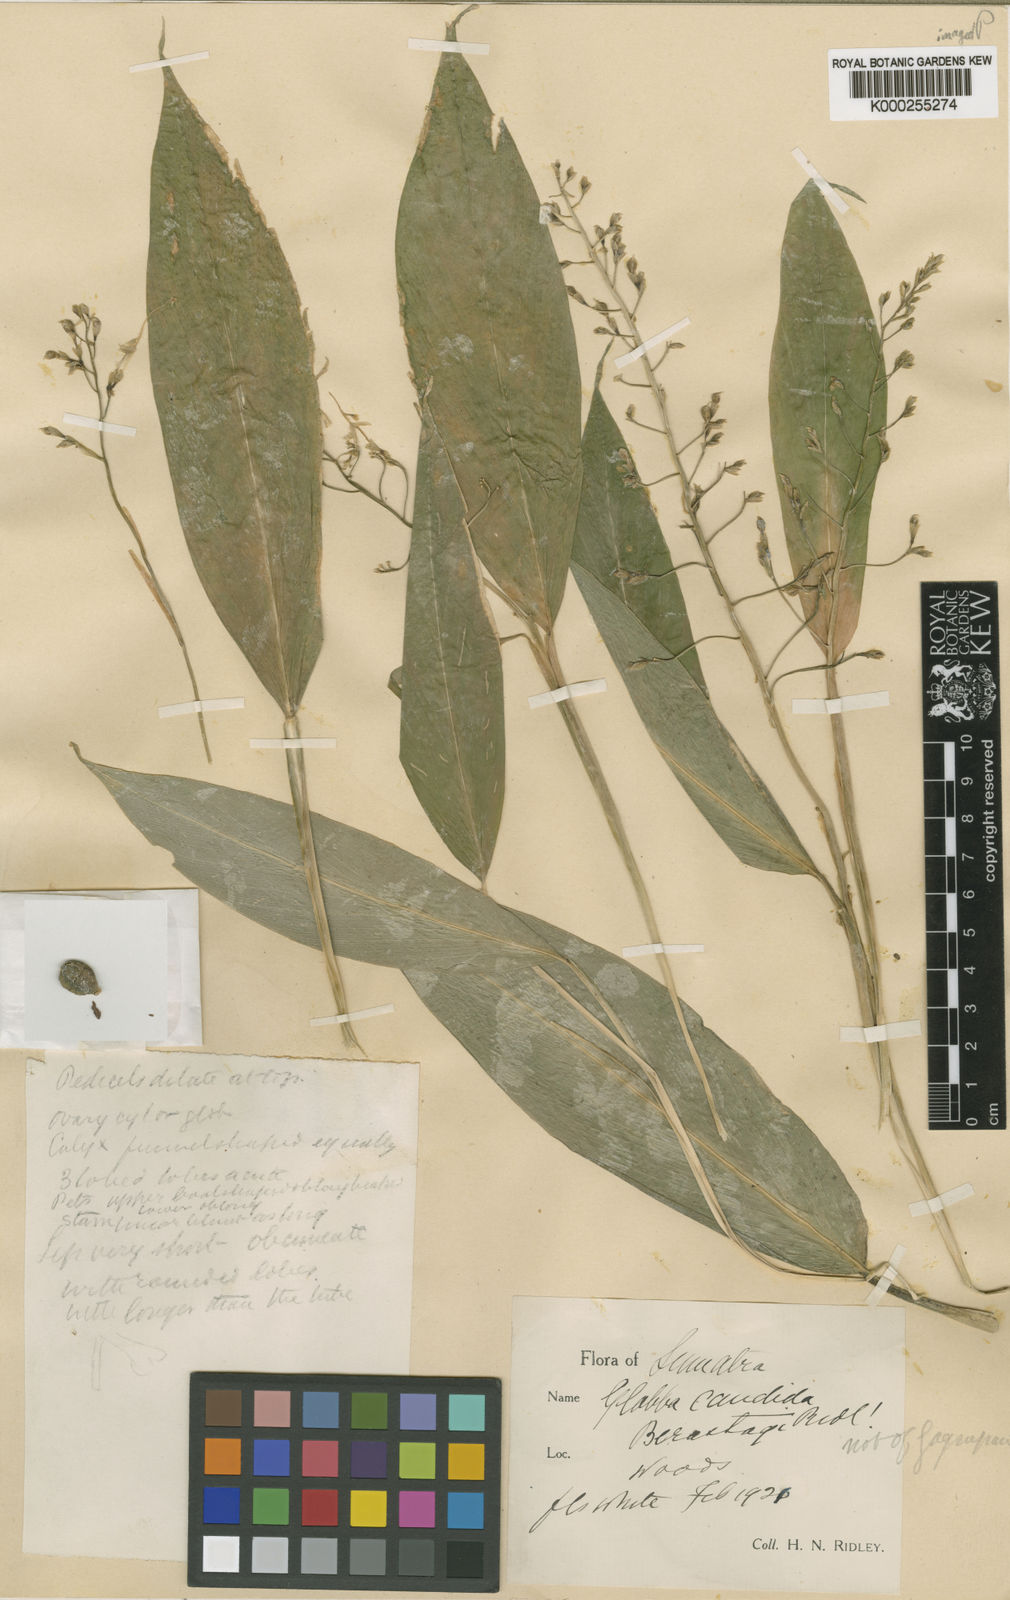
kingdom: Plantae
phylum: Tracheophyta
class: Liliopsida
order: Zingiberales
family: Zingiberaceae
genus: Globba
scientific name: Globba paniculata
